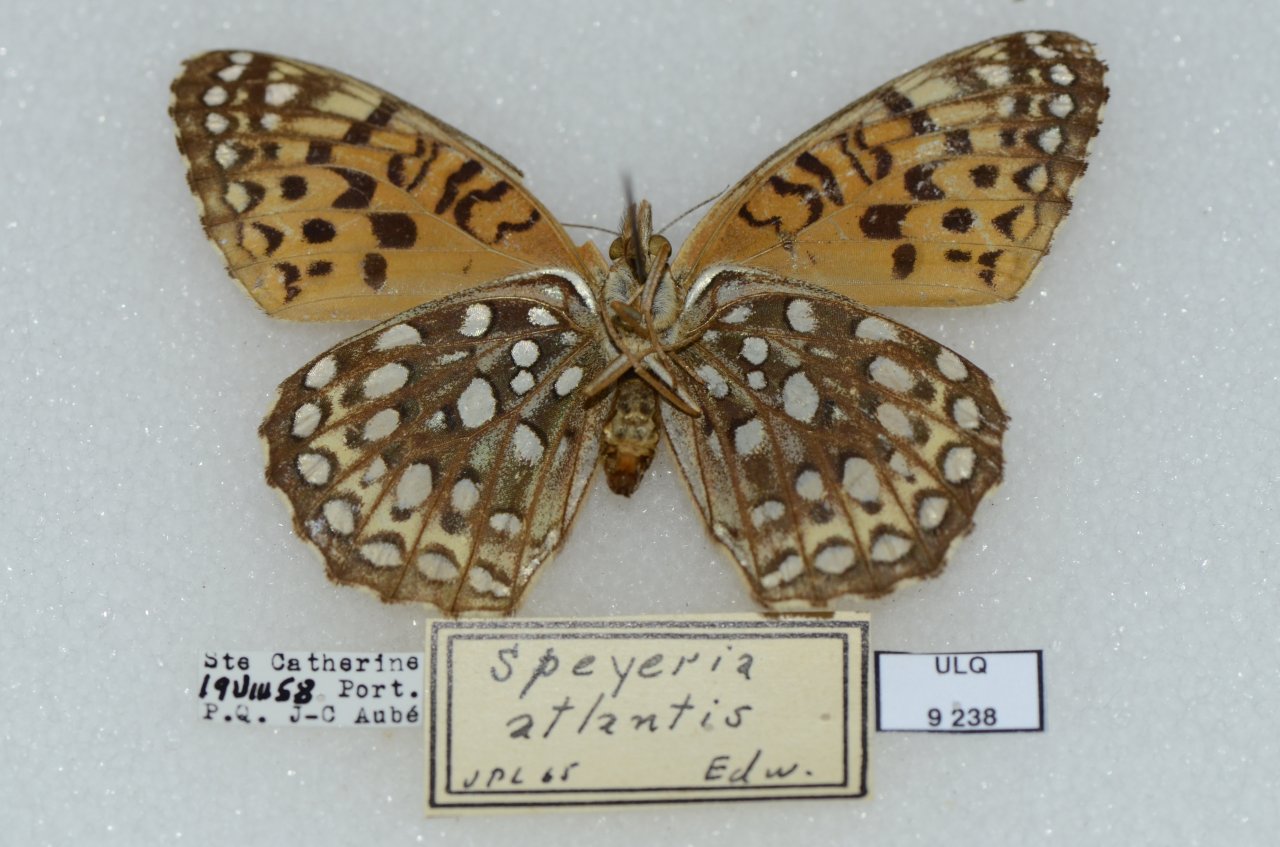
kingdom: Animalia
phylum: Arthropoda
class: Insecta
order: Lepidoptera
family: Nymphalidae
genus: Speyeria
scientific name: Speyeria atlantis
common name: Atlantis Fritillary
